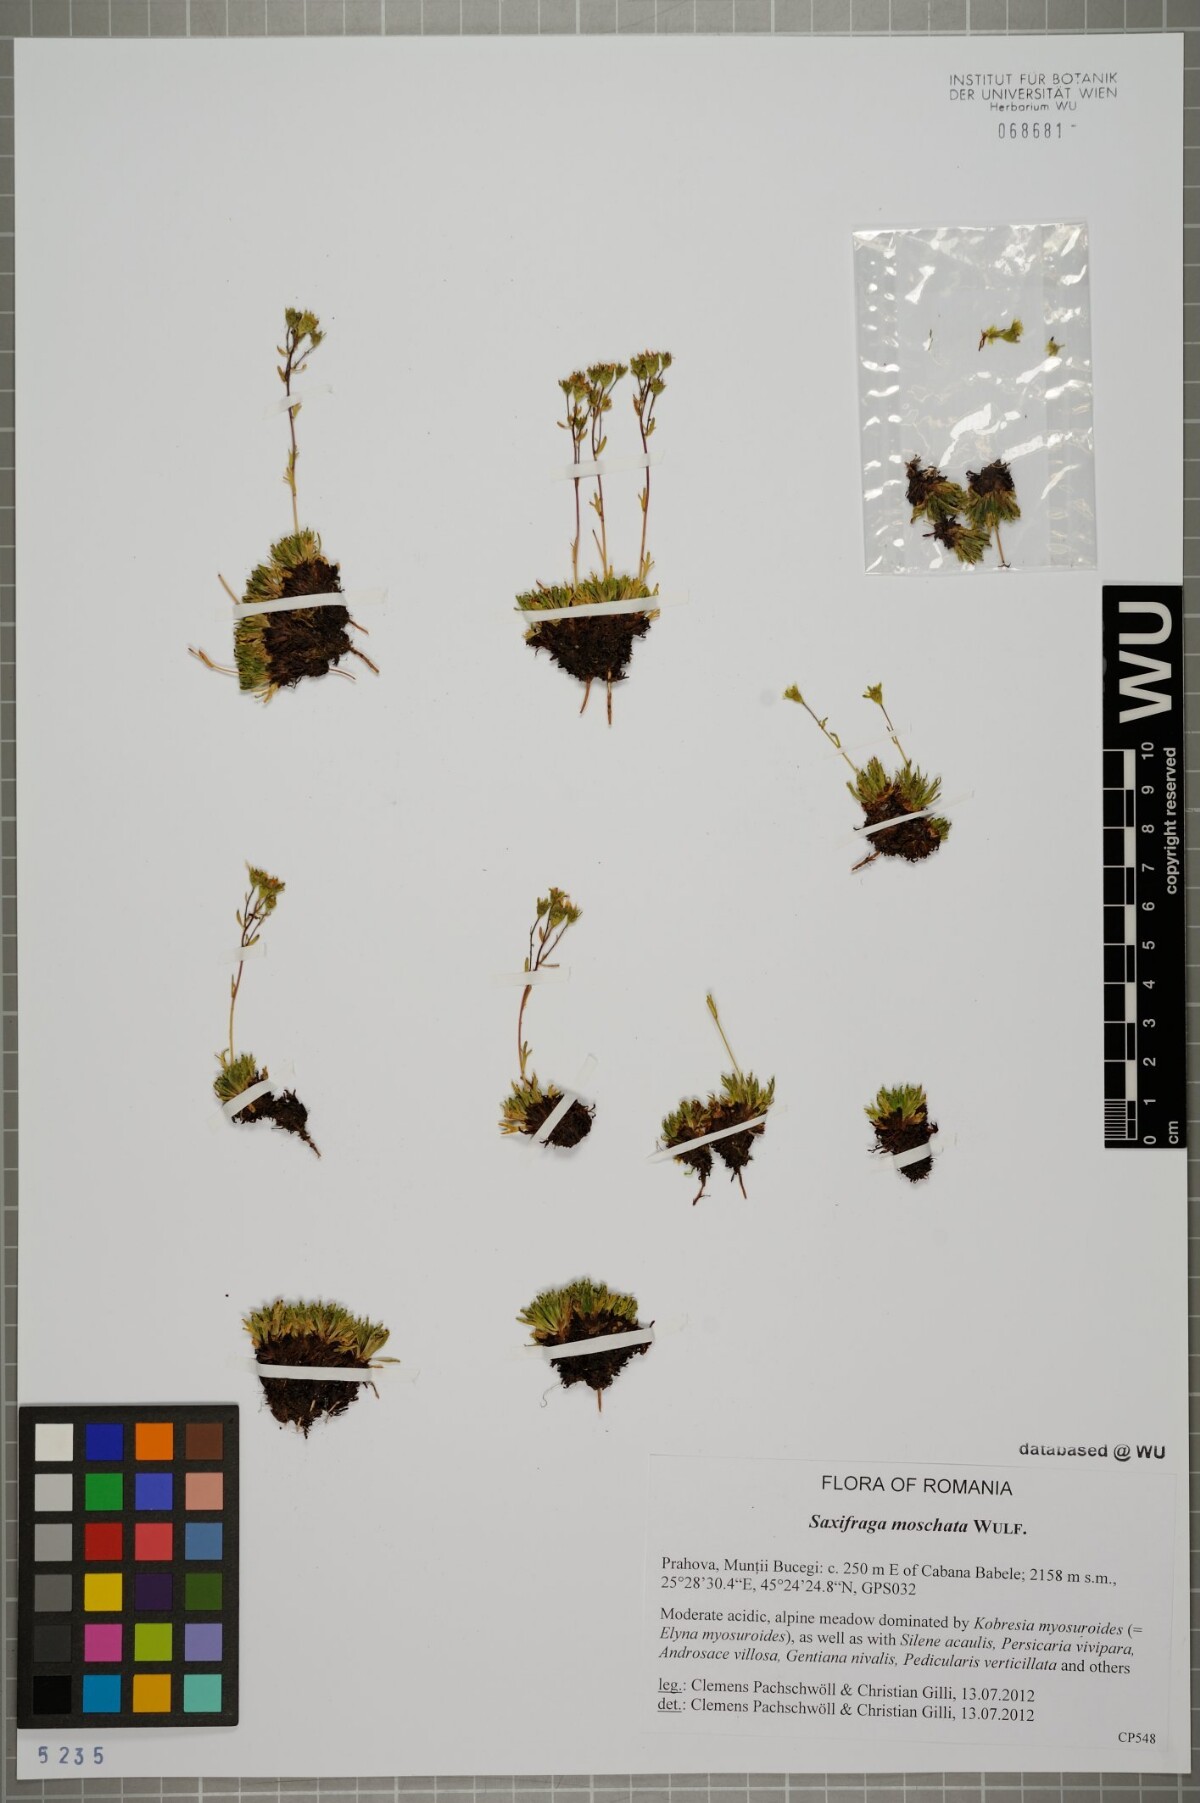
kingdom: Plantae
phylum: Tracheophyta
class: Magnoliopsida
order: Saxifragales
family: Saxifragaceae
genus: Saxifraga
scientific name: Saxifraga moschata
